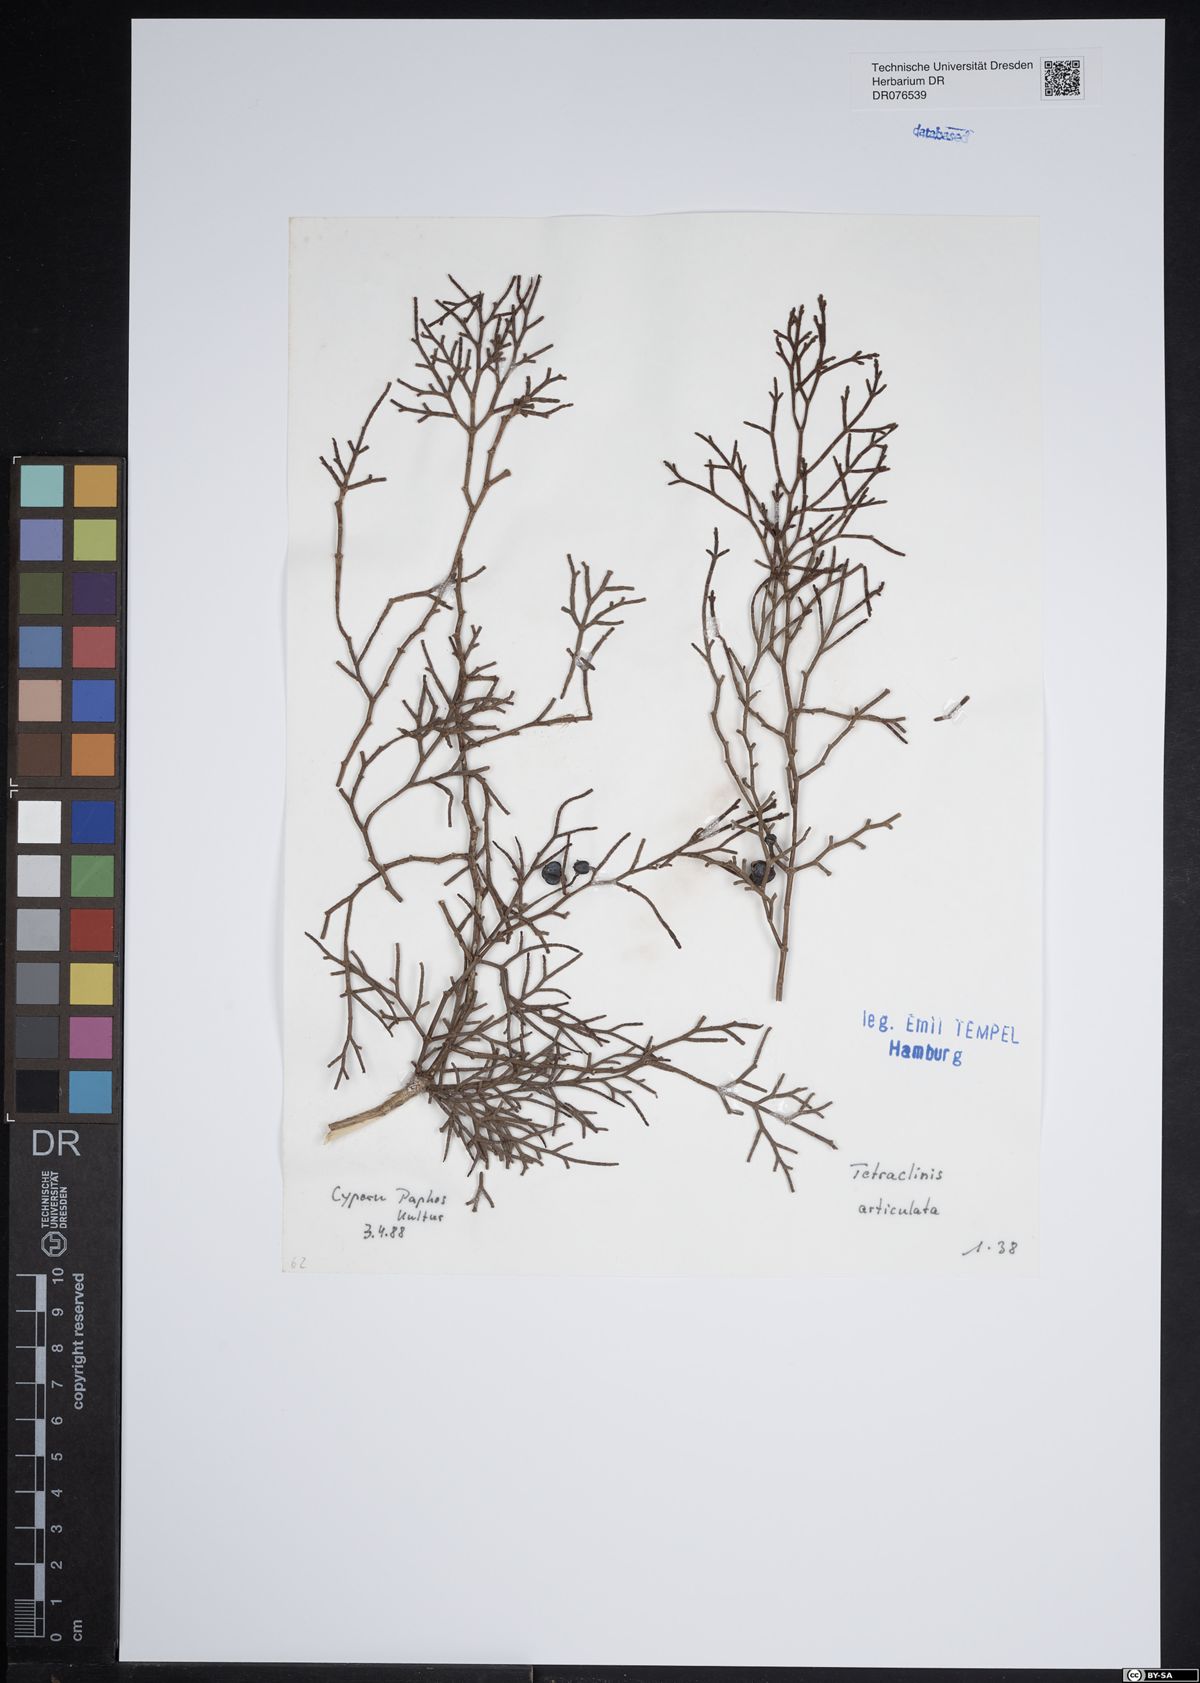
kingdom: Plantae
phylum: Tracheophyta
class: Pinopsida
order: Pinales
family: Cupressaceae
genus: Tetraclinis
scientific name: Tetraclinis articulata
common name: Sandarac
